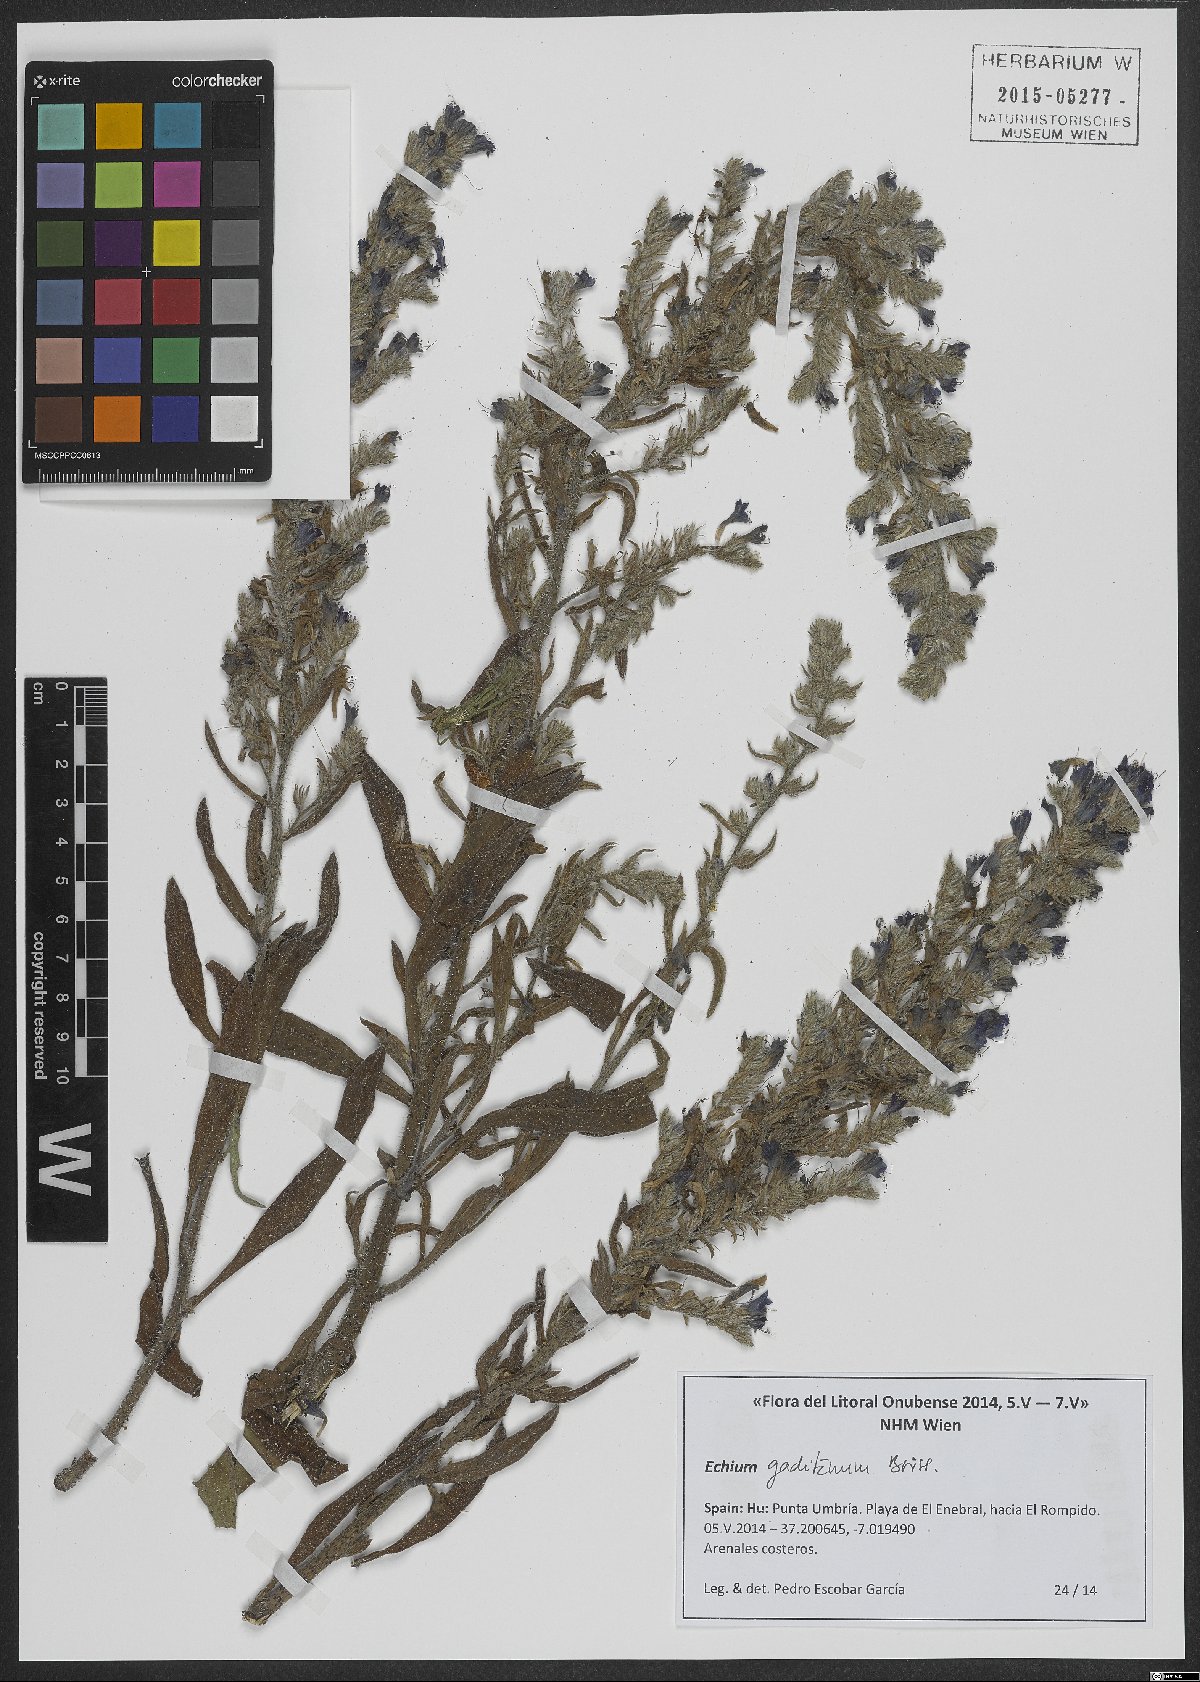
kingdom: Plantae
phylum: Tracheophyta
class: Magnoliopsida
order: Boraginales
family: Boraginaceae
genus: Echium
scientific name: Echium gaditanum
